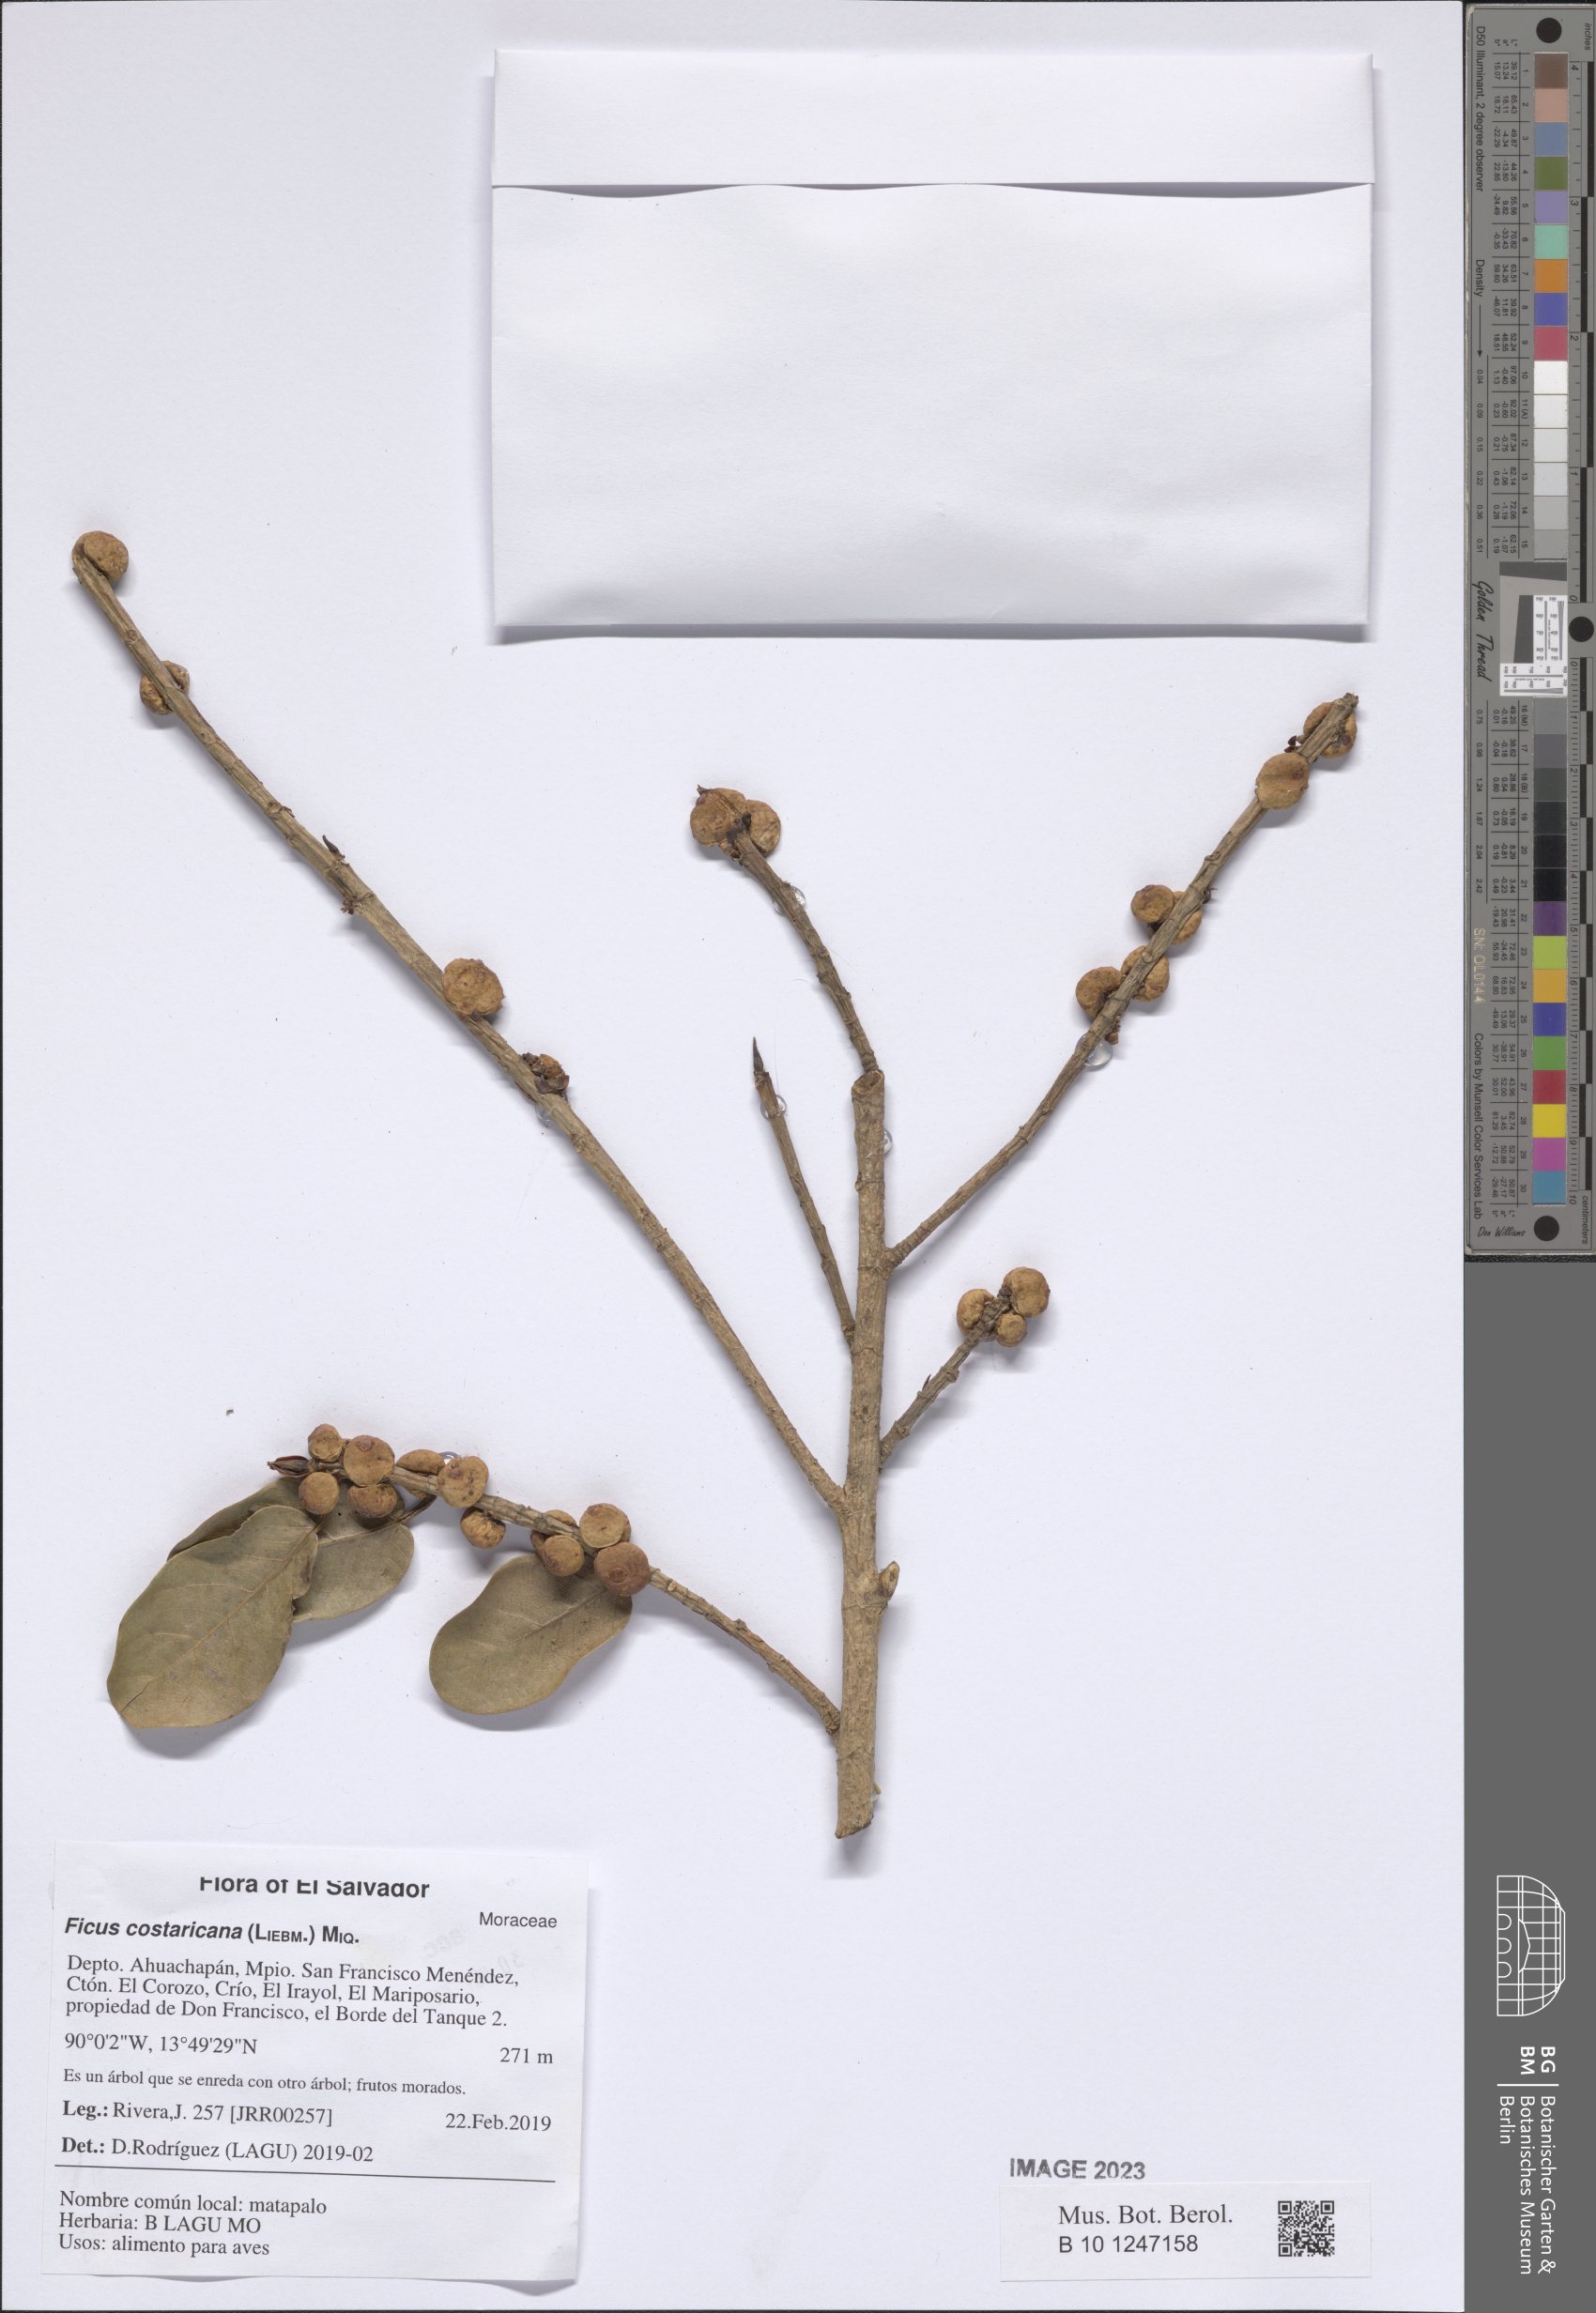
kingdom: Plantae
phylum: Tracheophyta
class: Magnoliopsida
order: Rosales
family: Moraceae
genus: Ficus
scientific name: Ficus costaricana
